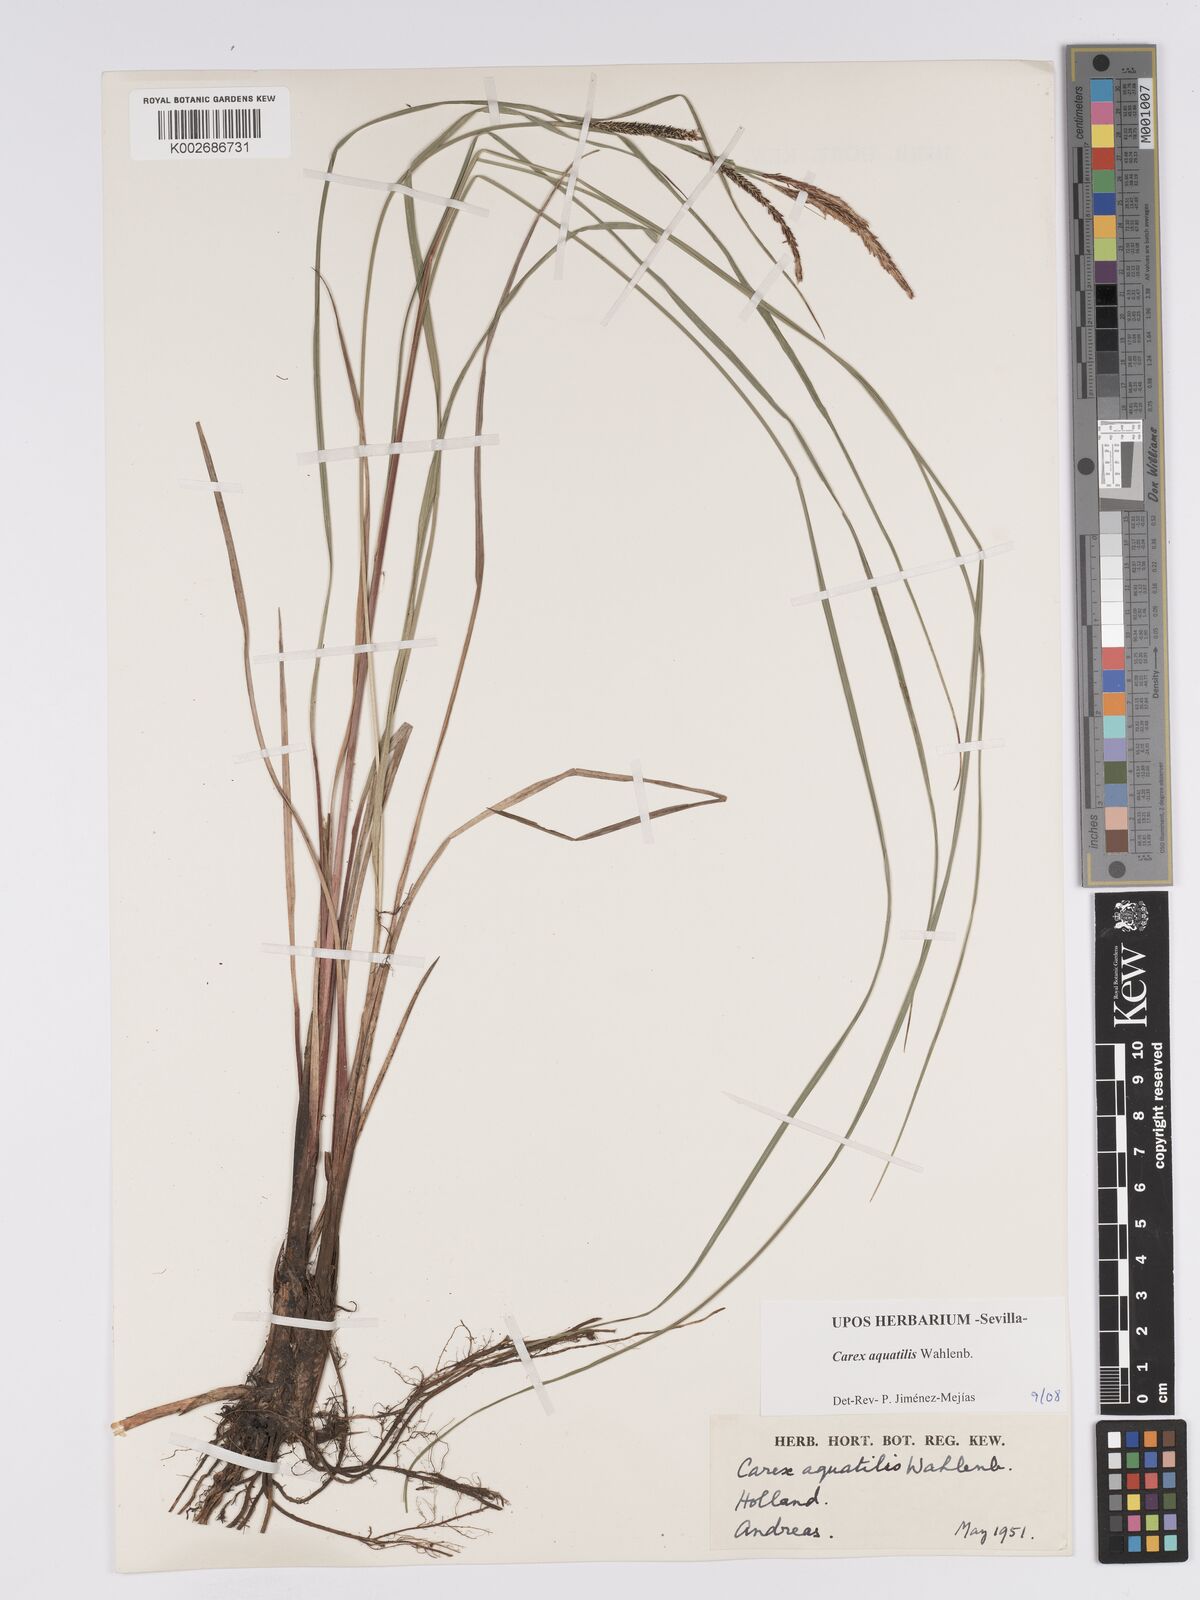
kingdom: Plantae
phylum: Tracheophyta
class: Liliopsida
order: Poales
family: Cyperaceae
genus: Carex
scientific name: Carex aquatilis
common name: Water sedge
